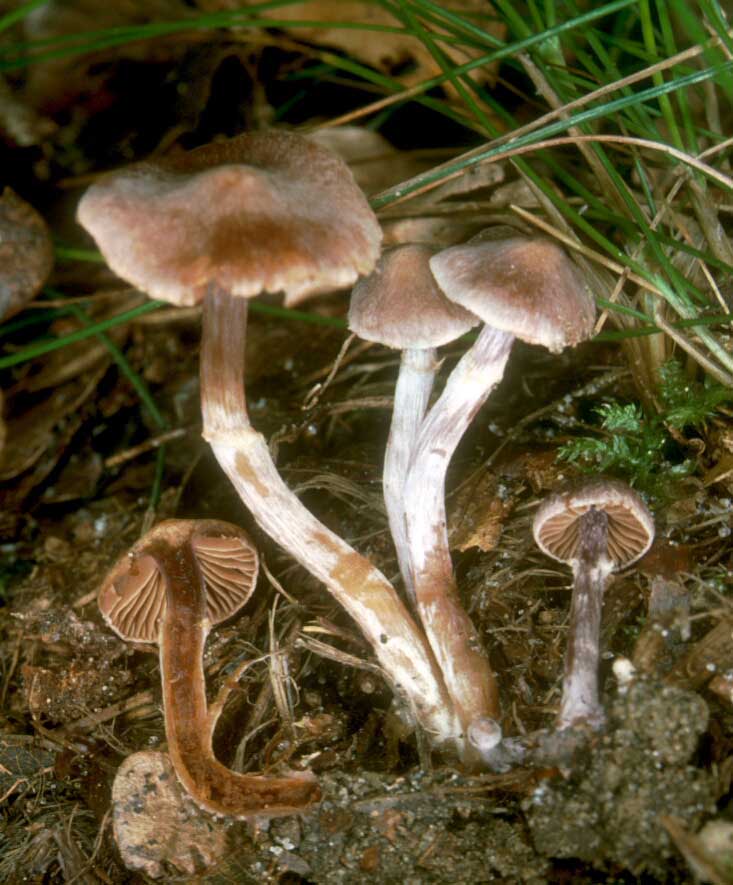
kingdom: Fungi
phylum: Basidiomycota
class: Agaricomycetes
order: Agaricales
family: Cortinariaceae
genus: Cortinarius
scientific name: Cortinarius
